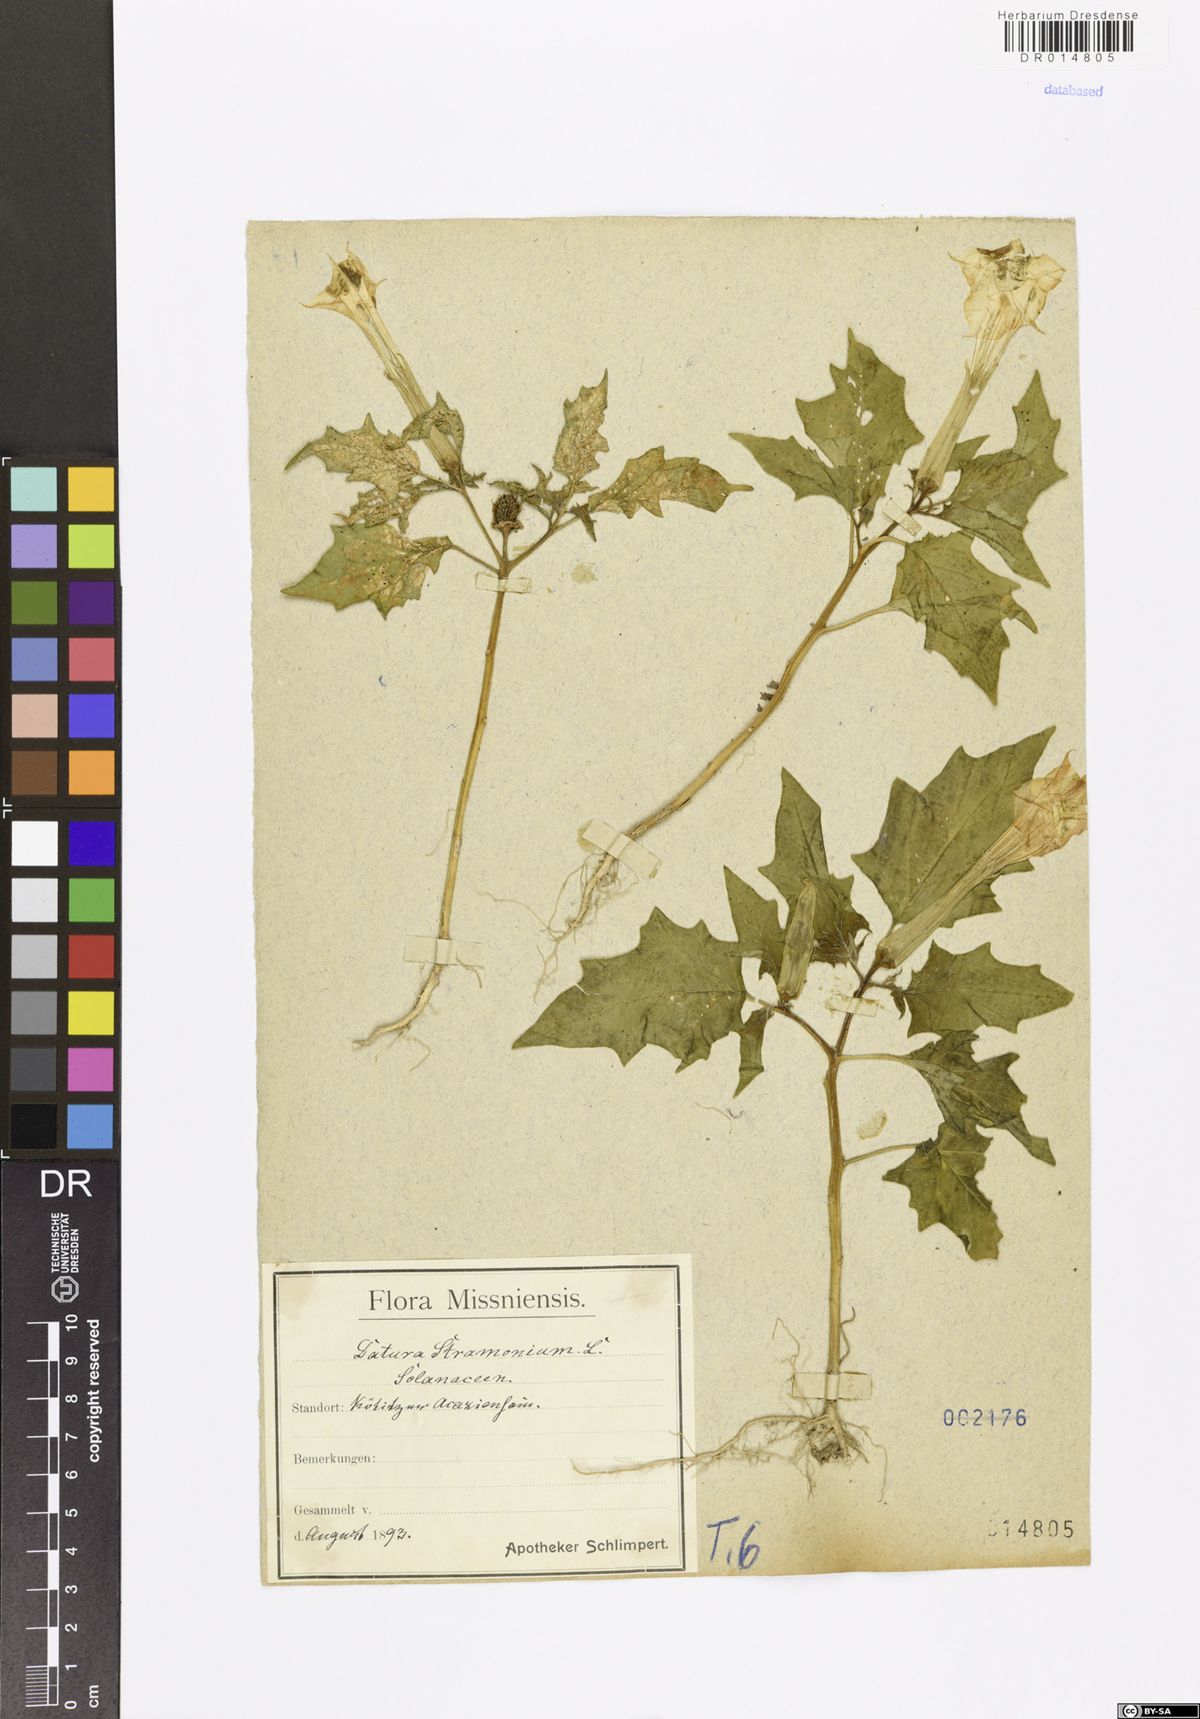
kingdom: Plantae
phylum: Tracheophyta
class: Magnoliopsida
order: Solanales
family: Solanaceae
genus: Datura
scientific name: Datura stramonium
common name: Thorn-apple
